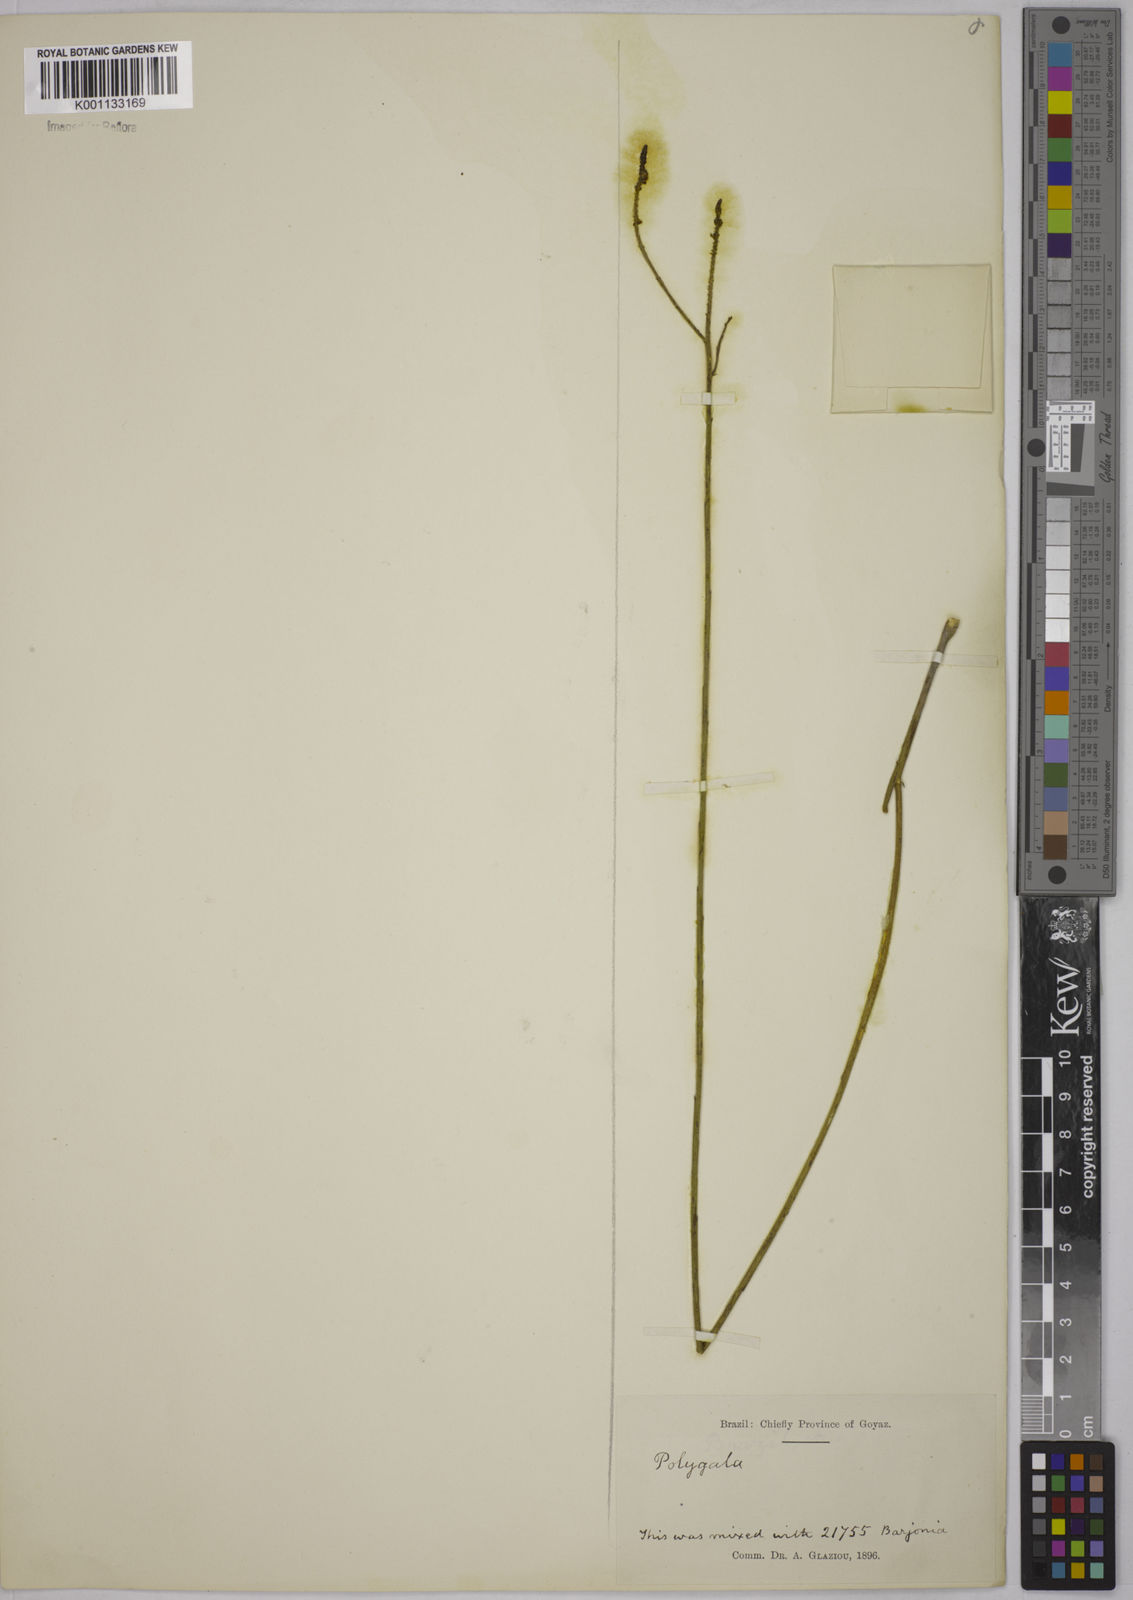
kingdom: Plantae
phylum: Tracheophyta
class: Magnoliopsida
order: Fabales
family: Polygalaceae
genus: Polygala
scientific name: Polygala atropurpurea
